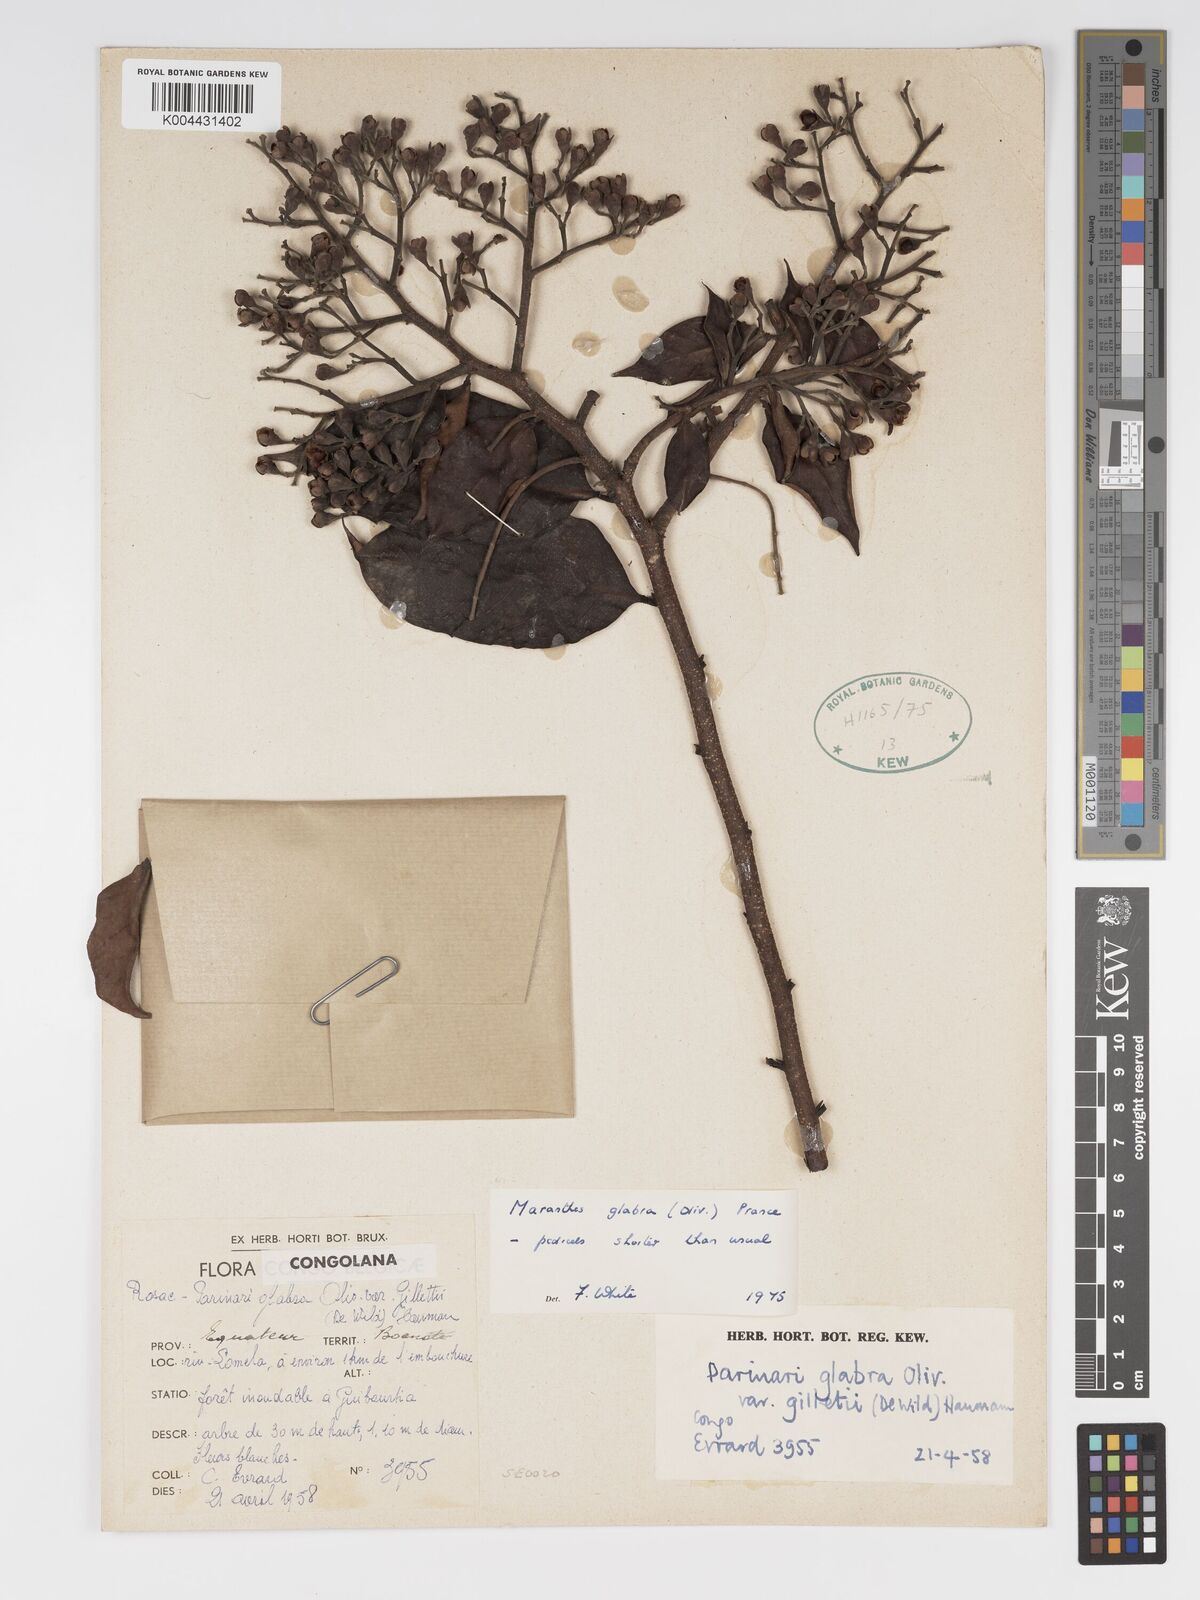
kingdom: Plantae
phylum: Tracheophyta
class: Magnoliopsida
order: Malpighiales
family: Chrysobalanaceae
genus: Maranthes
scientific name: Maranthes glabra
